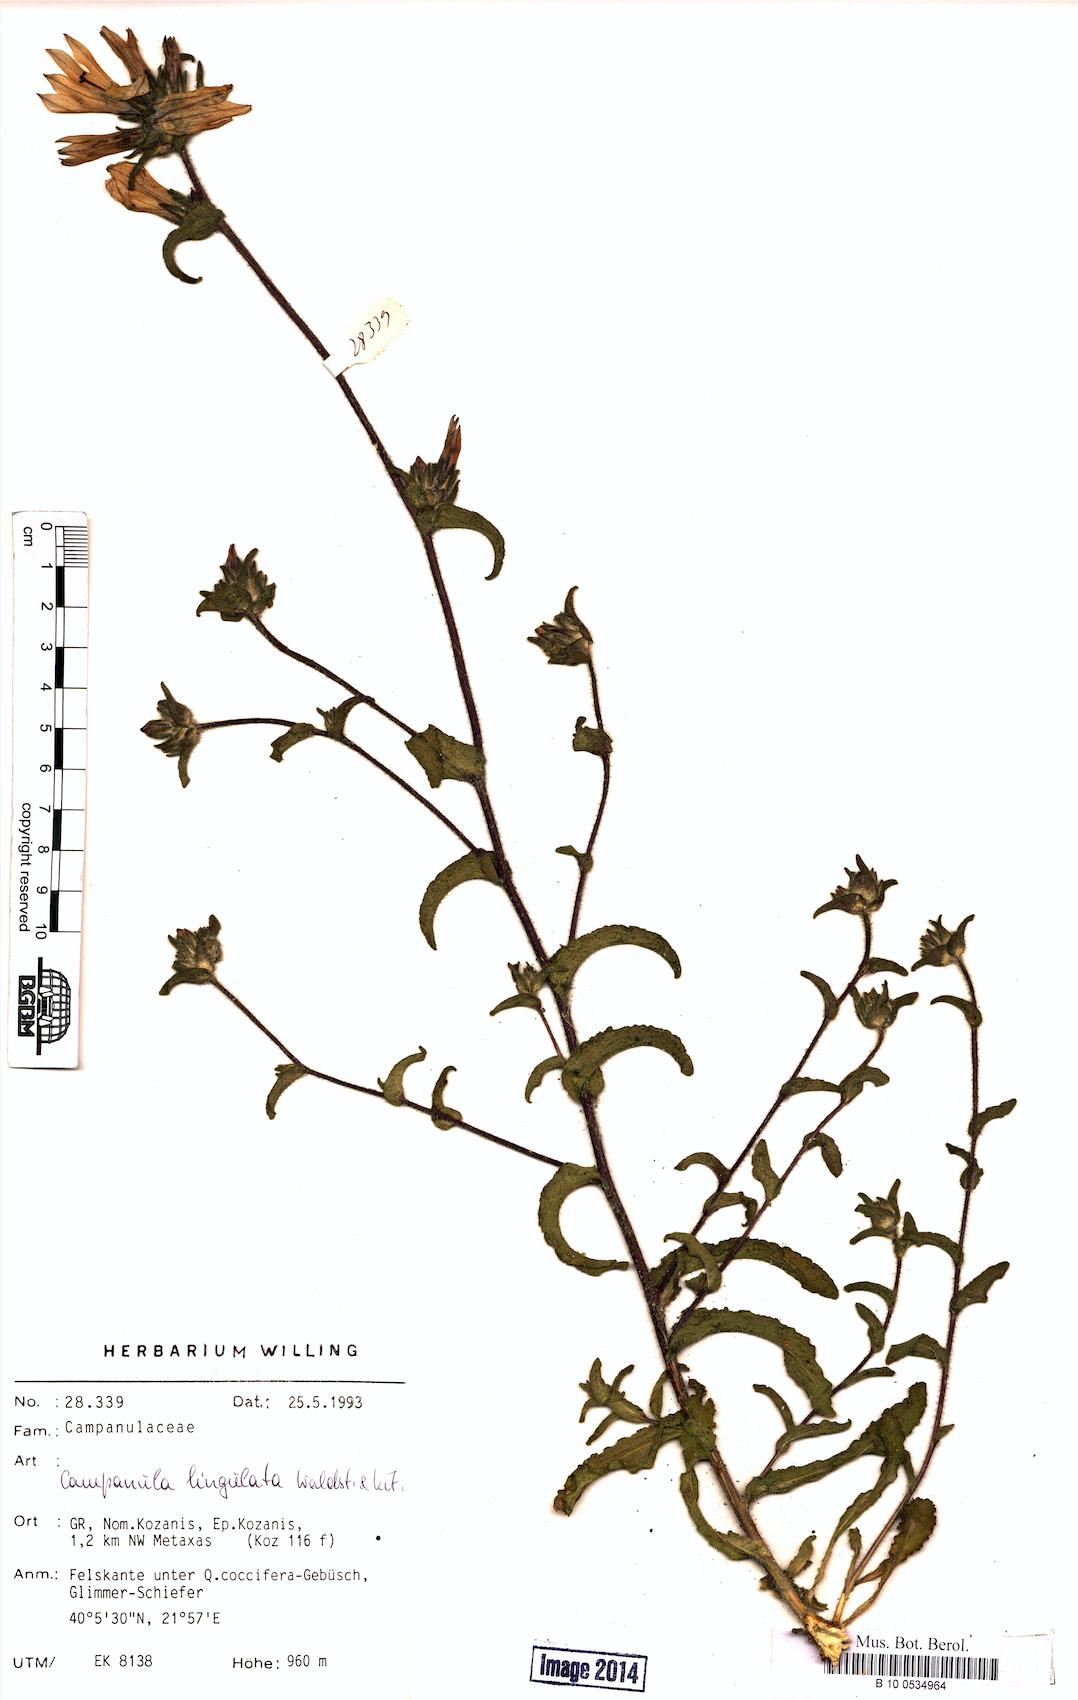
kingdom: Plantae
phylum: Tracheophyta
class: Magnoliopsida
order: Asterales
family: Campanulaceae
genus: Campanula
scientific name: Campanula lingulata
